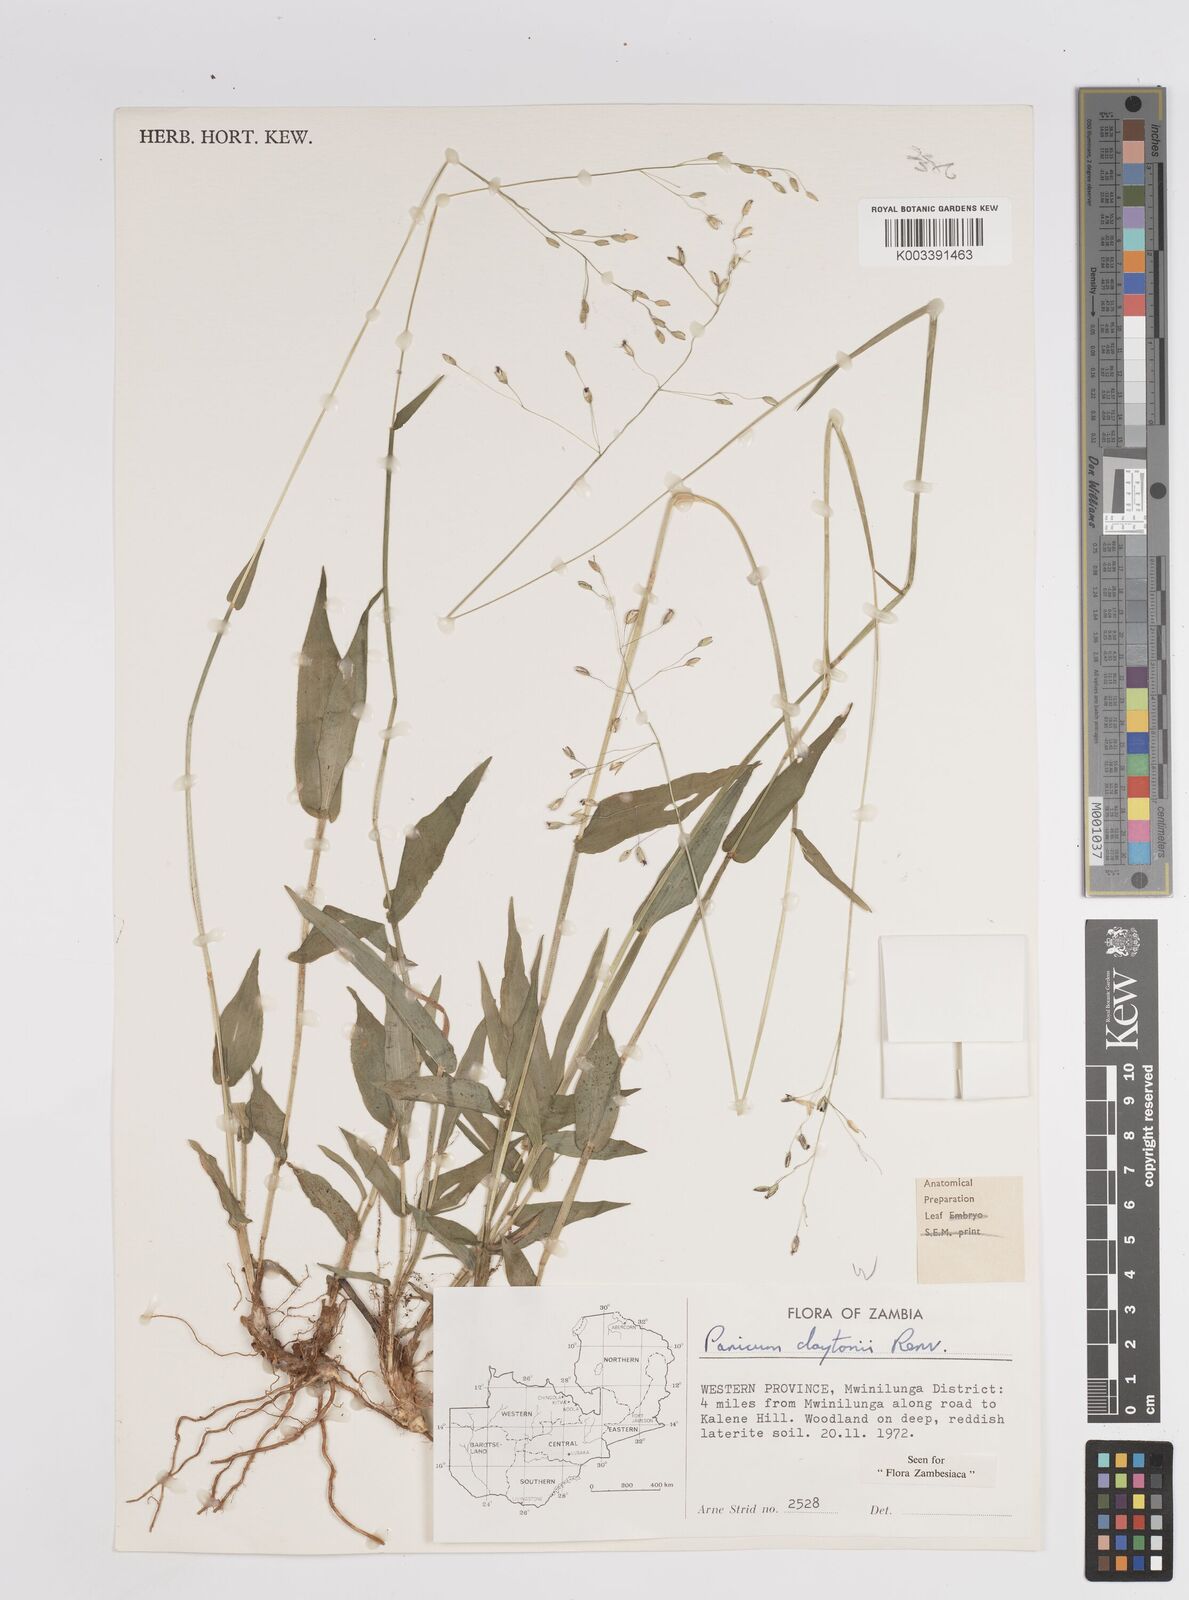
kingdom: Plantae
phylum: Tracheophyta
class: Liliopsida
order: Poales
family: Poaceae
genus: Adenochloa
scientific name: Adenochloa claytonii
